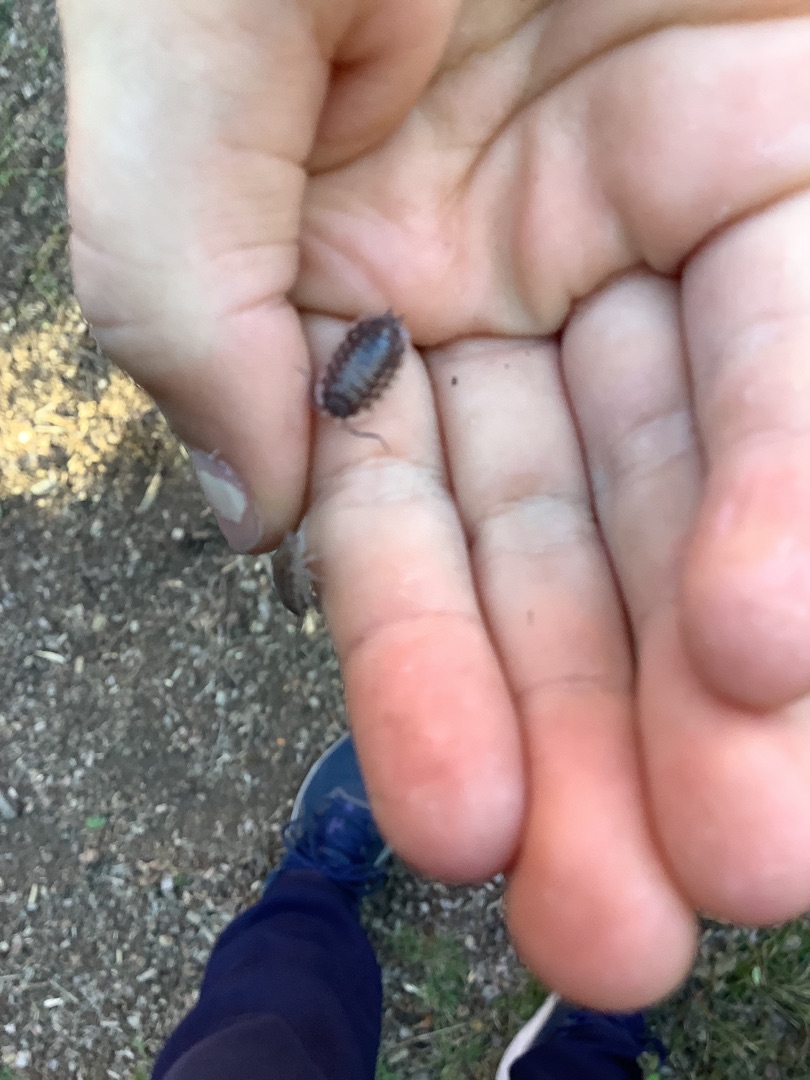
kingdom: Animalia
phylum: Arthropoda
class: Malacostraca
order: Isopoda
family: Oniscidae
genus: Oniscus
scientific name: Oniscus asellus
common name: Glat bænkebider
